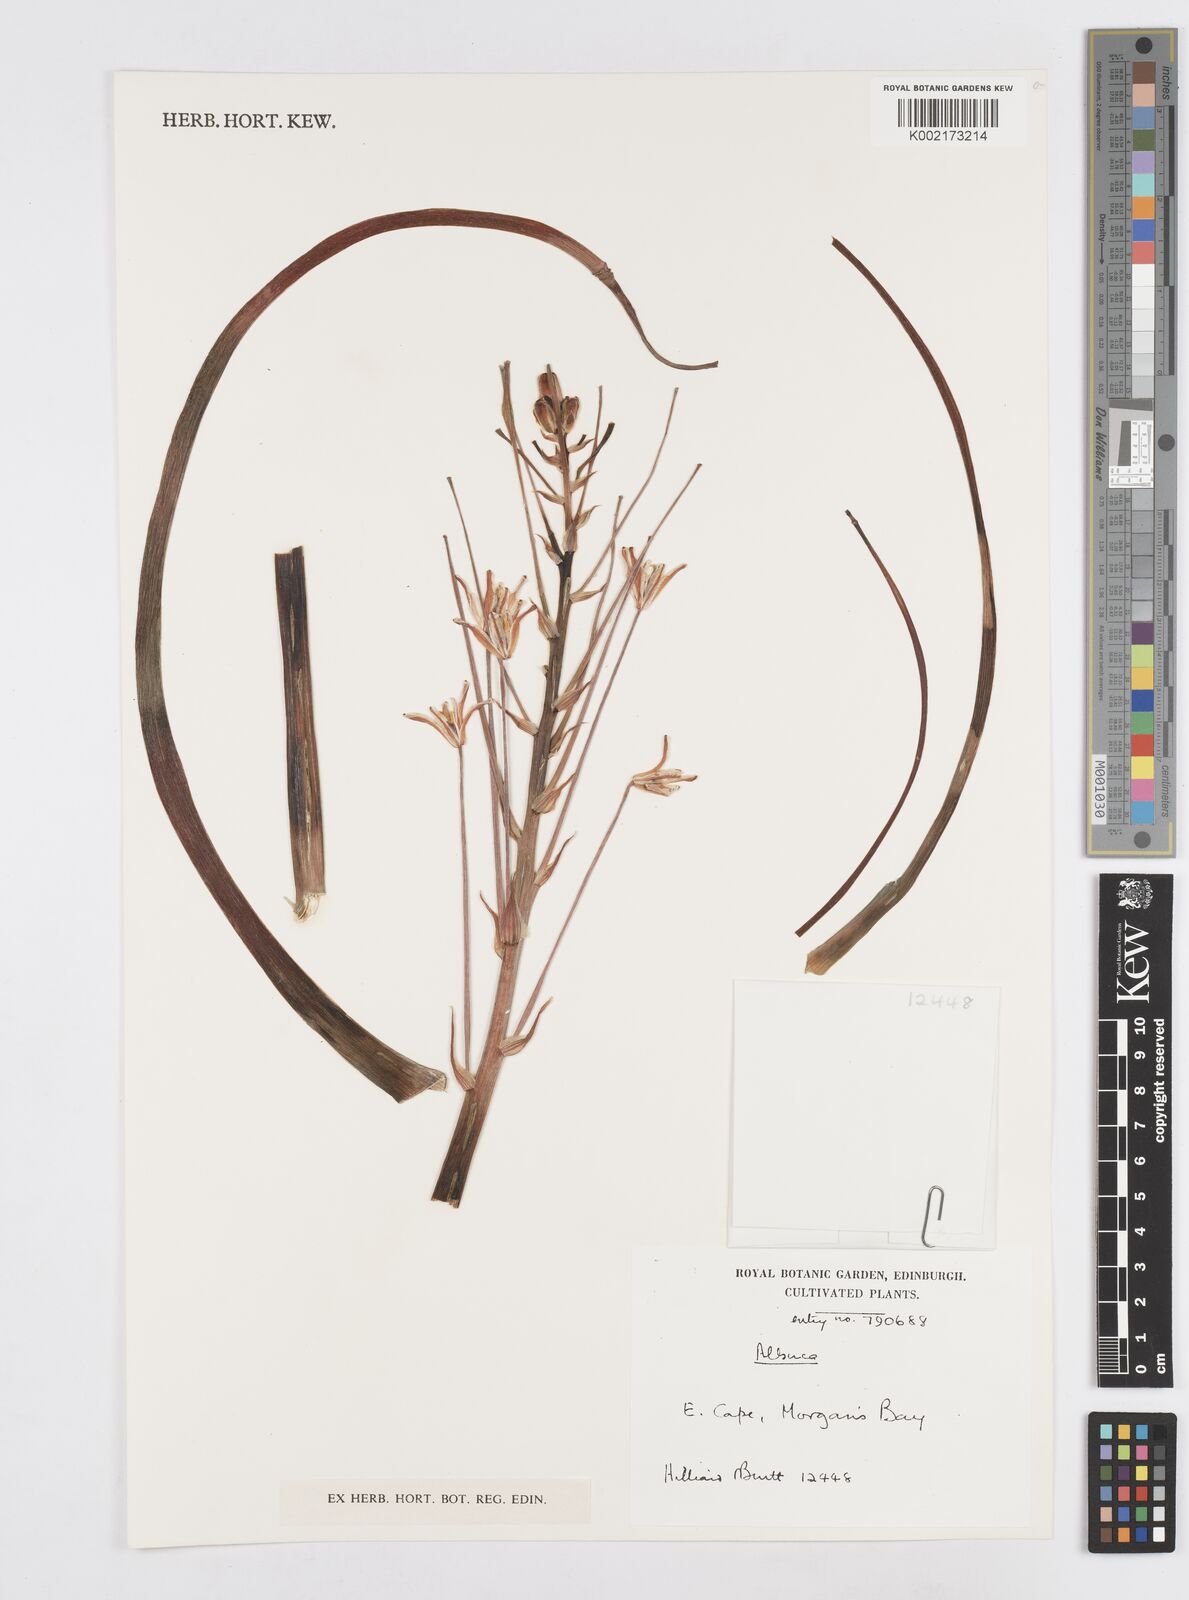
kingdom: Plantae
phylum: Tracheophyta
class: Liliopsida
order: Asparagales
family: Asparagaceae
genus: Albuca
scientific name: Albuca
